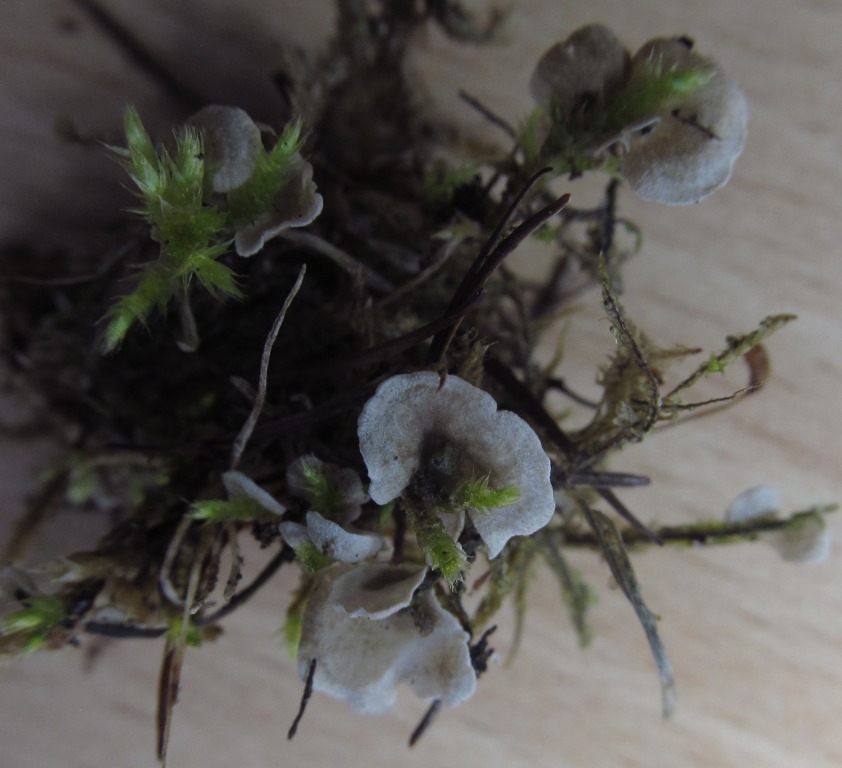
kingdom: Fungi
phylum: Basidiomycota
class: Agaricomycetes
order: Agaricales
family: Hygrophoraceae
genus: Arrhenia
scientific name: Arrhenia retiruga
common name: lille fontænehat
